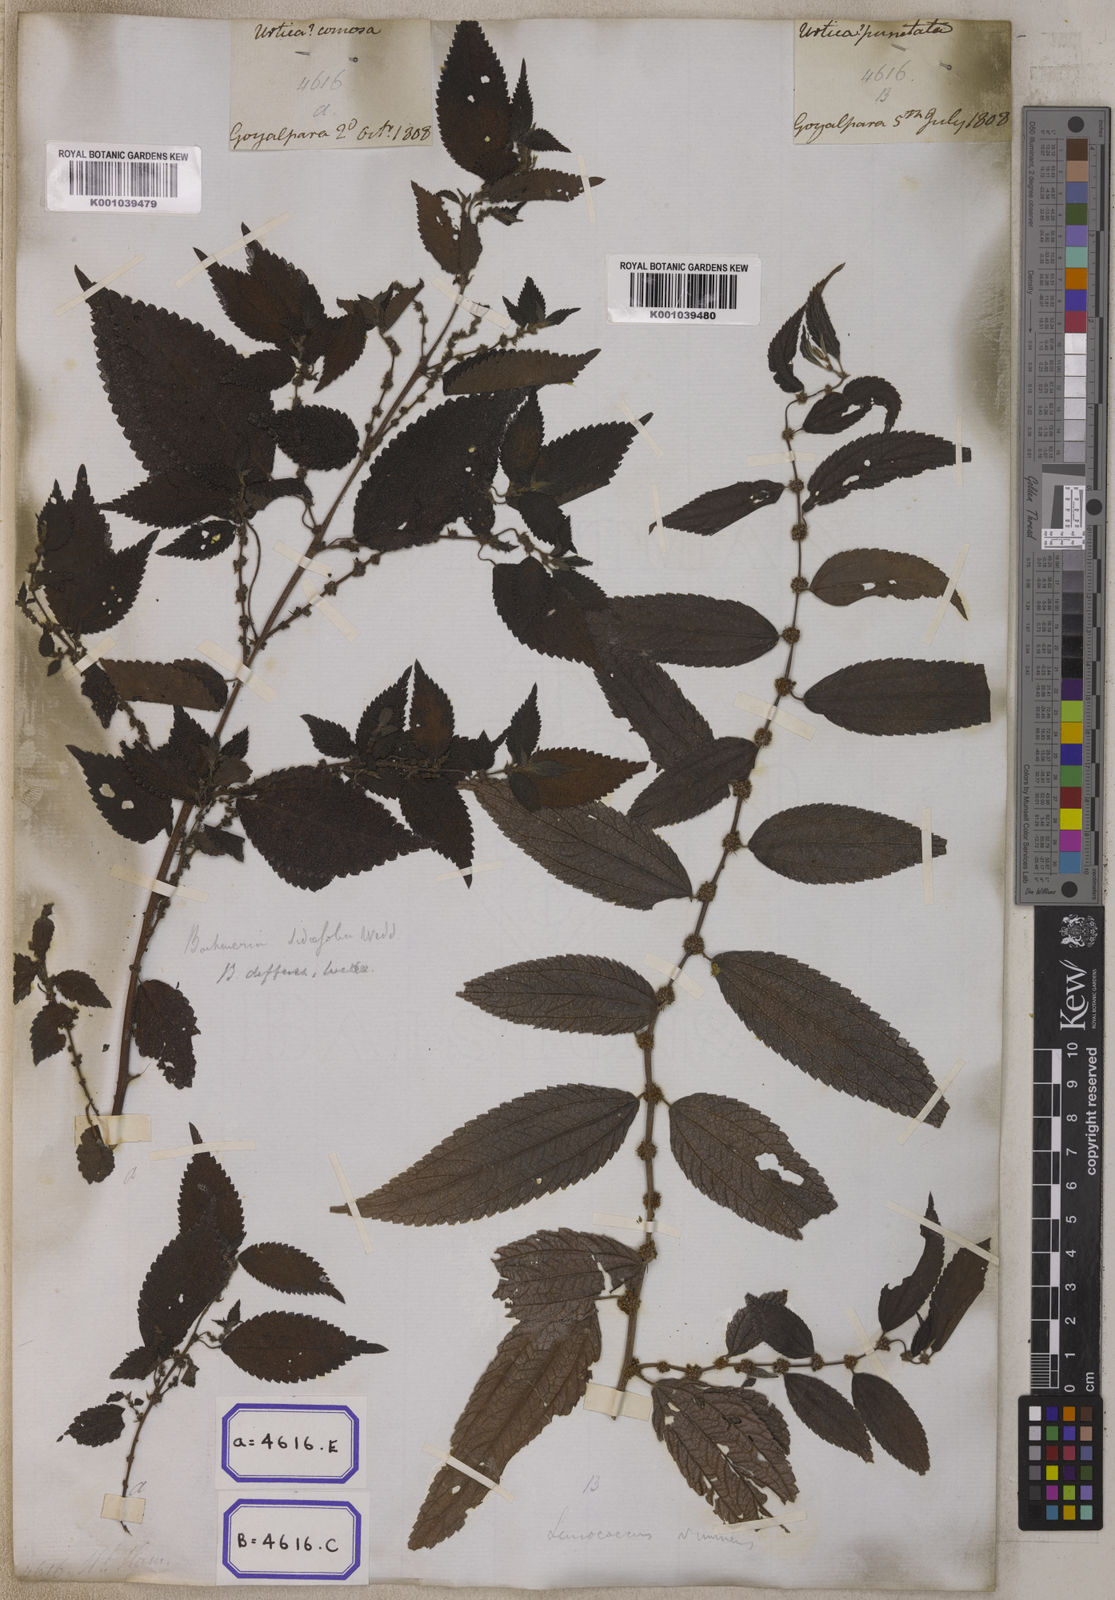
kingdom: Plantae
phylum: Tracheophyta
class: Magnoliopsida
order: Rosales
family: Urticaceae
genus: Pouzolzia
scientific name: Pouzolzia sanguinea
